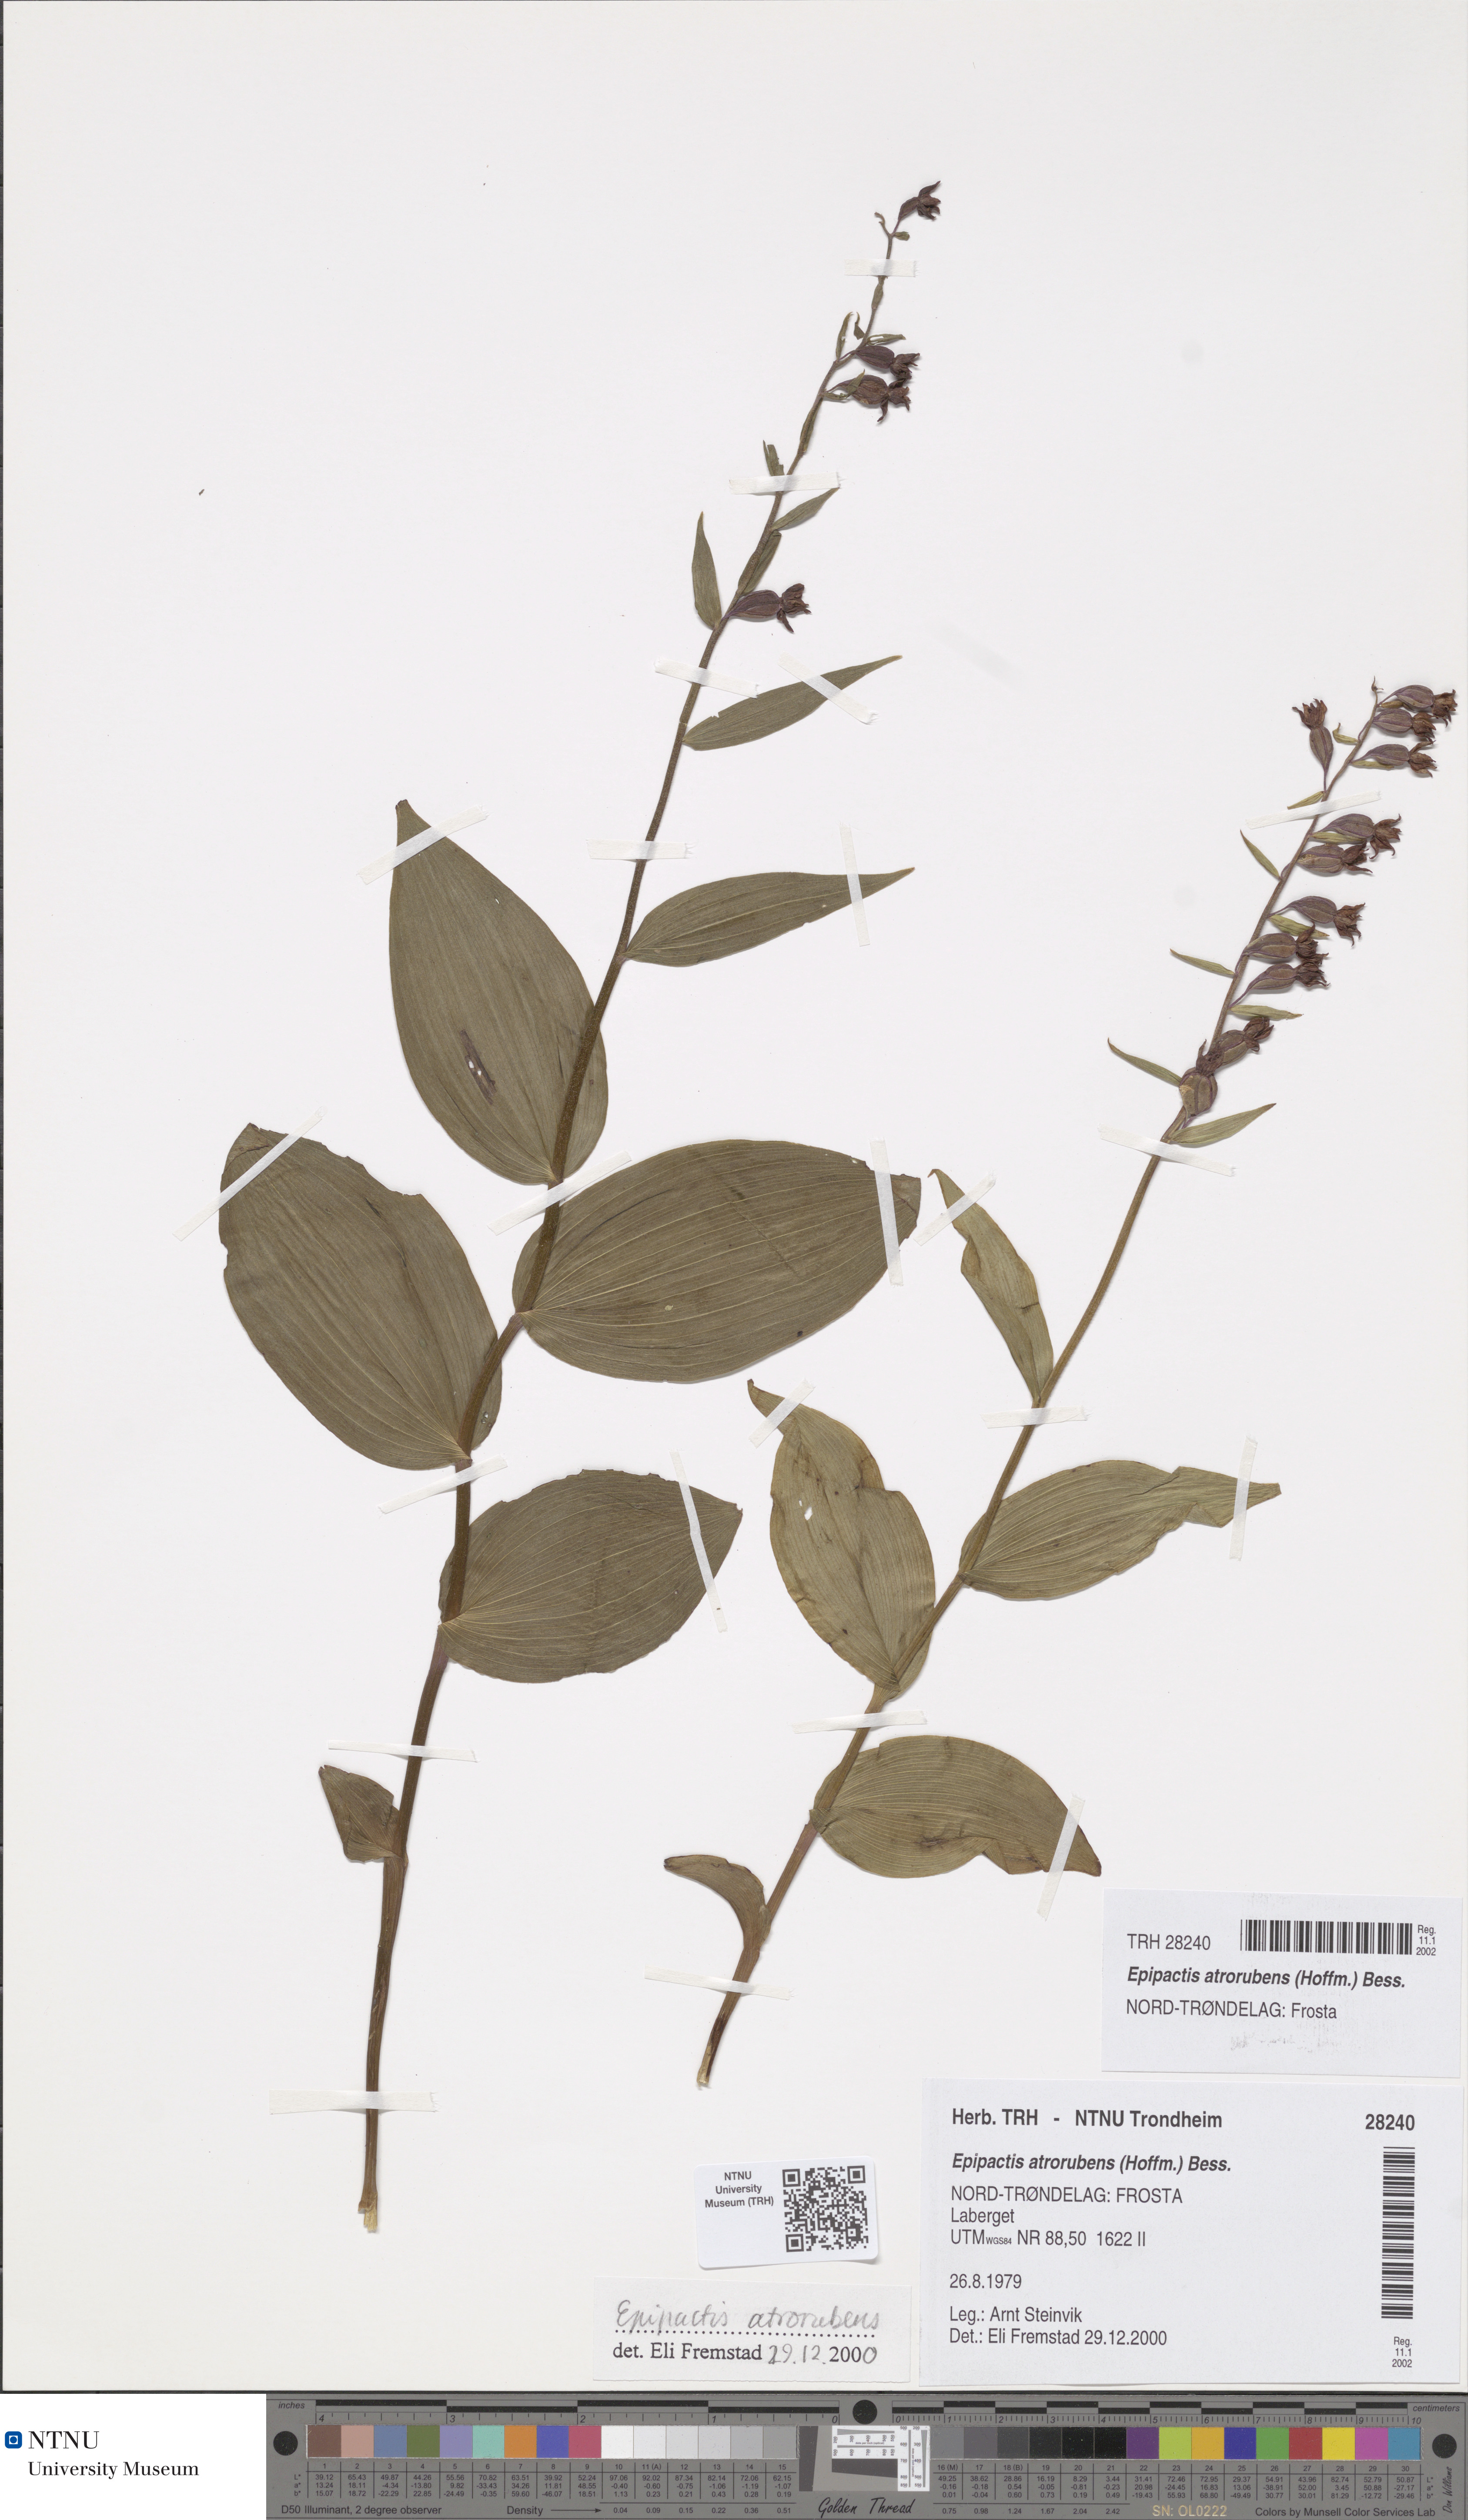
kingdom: Plantae
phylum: Tracheophyta
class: Liliopsida
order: Asparagales
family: Orchidaceae
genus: Epipactis
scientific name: Epipactis atrorubens
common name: Dark-red helleborine
